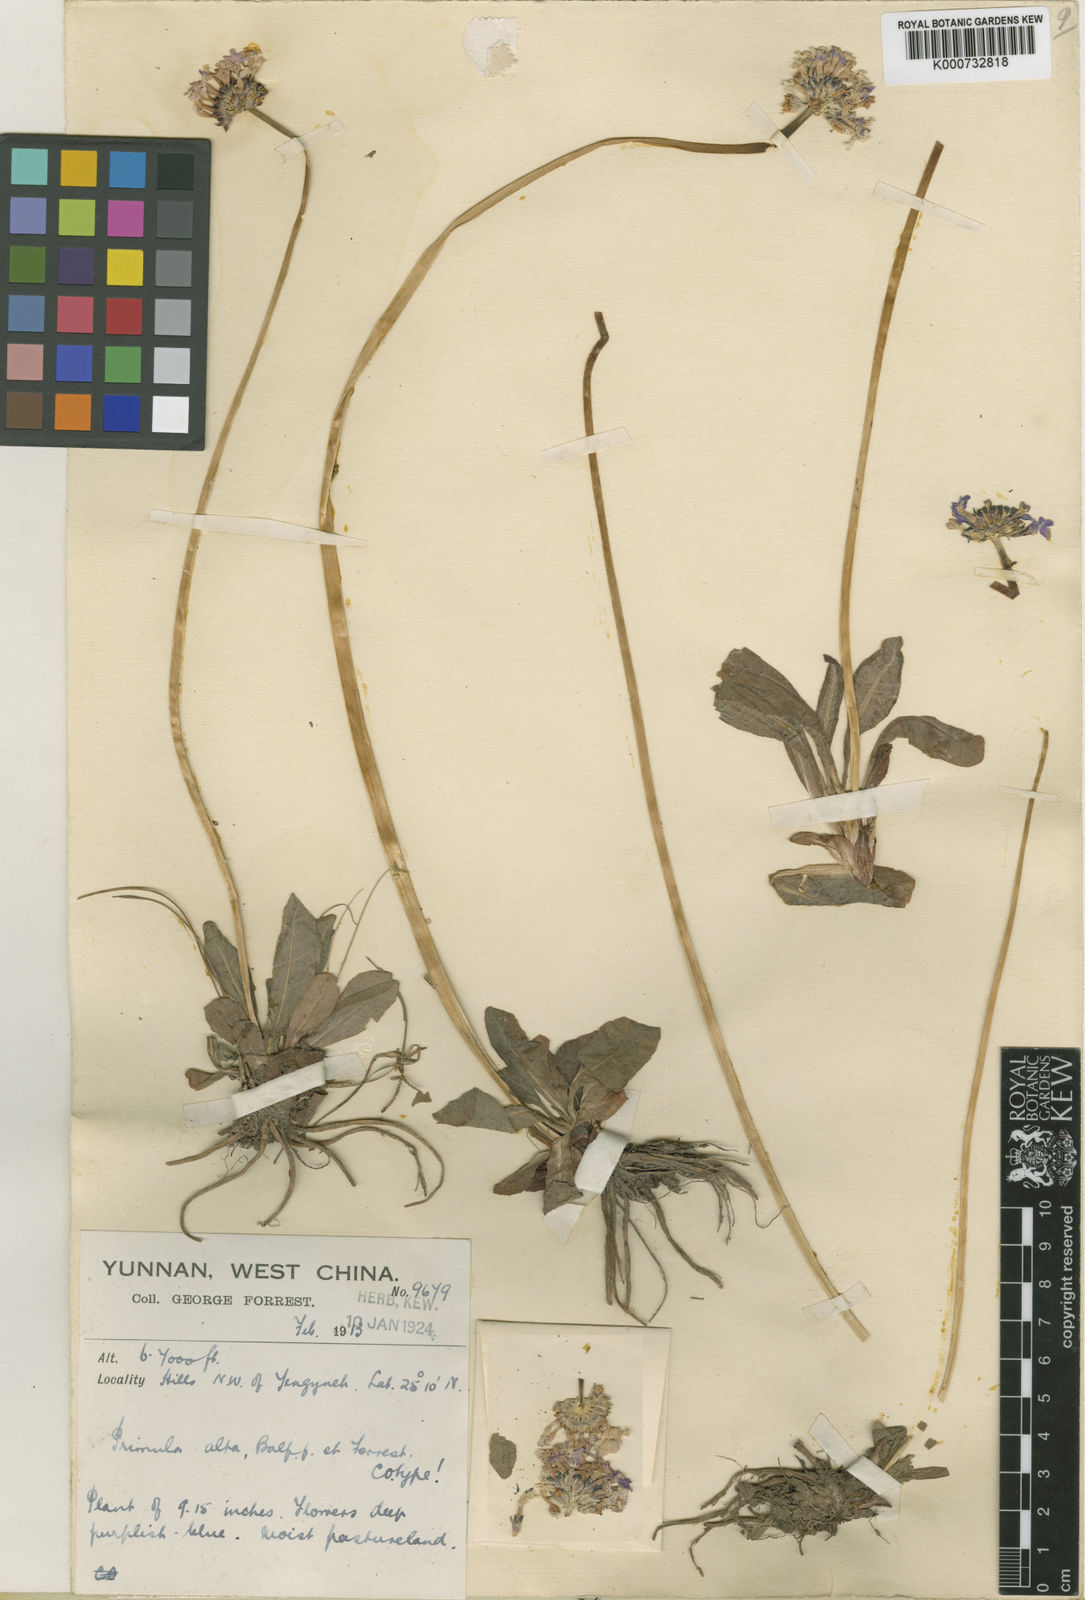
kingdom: Plantae
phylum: Tracheophyta
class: Magnoliopsida
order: Ericales
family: Primulaceae
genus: Primula
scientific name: Primula denticulata
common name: Drumstick primula
